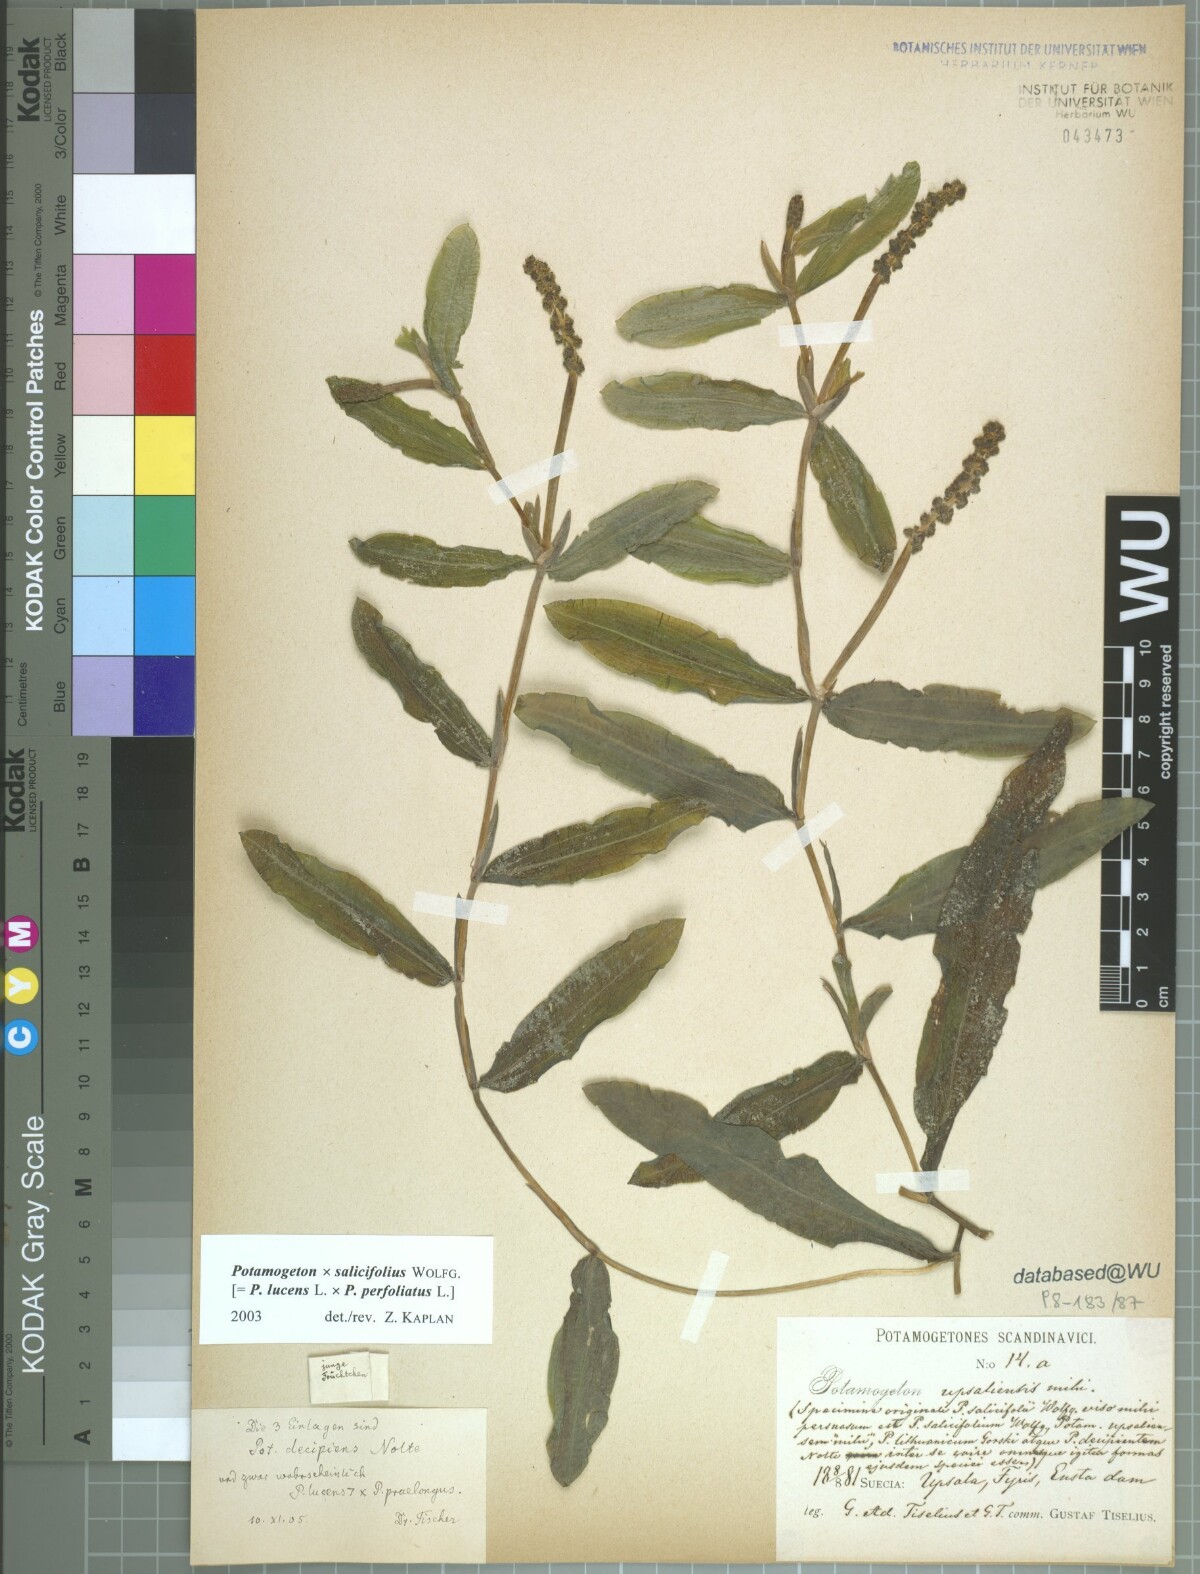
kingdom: Plantae
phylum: Tracheophyta
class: Liliopsida
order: Alismatales
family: Potamogetonaceae
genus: Potamogeton
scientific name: Potamogeton salicifolius
